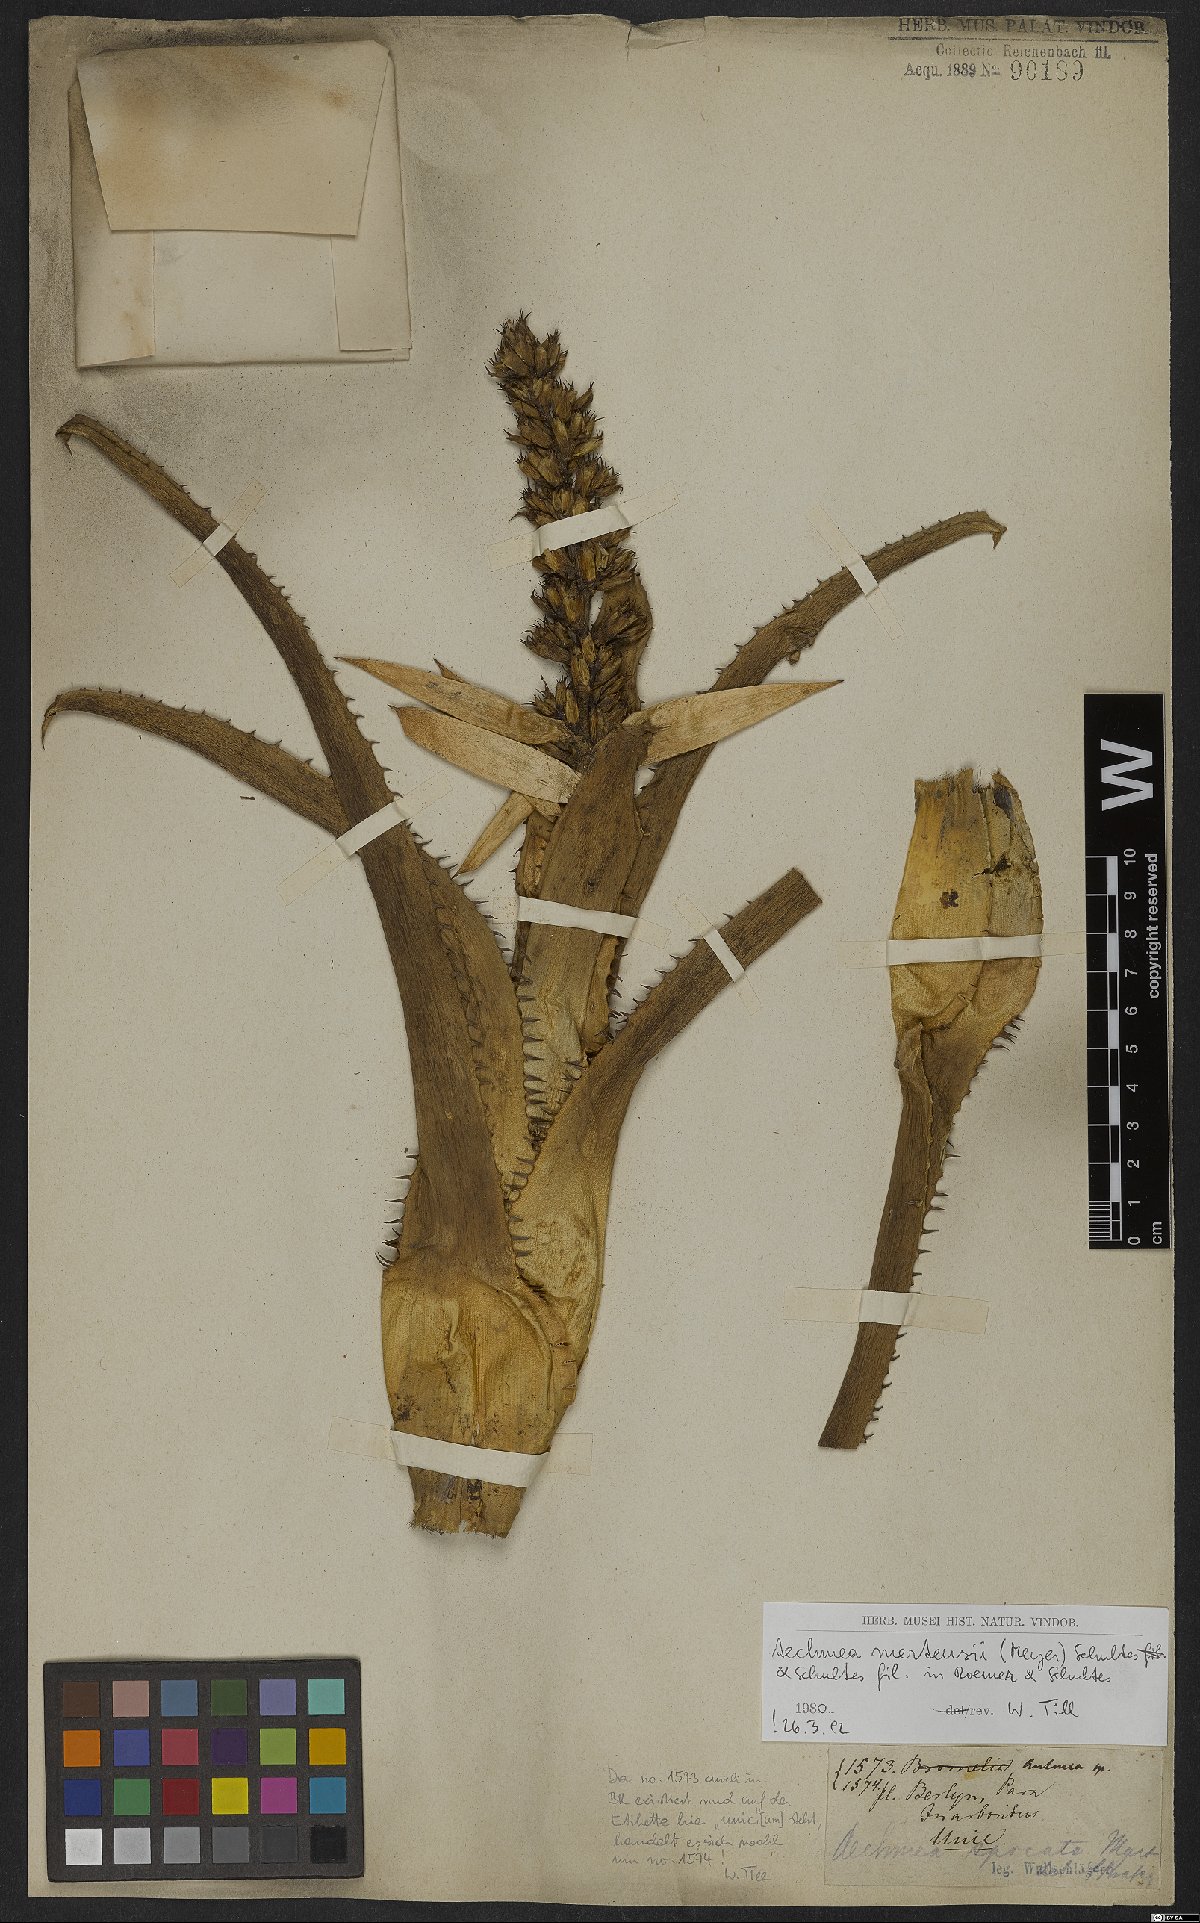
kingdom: Plantae
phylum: Tracheophyta
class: Liliopsida
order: Poales
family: Bromeliaceae
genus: Aechmea
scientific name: Aechmea mertensii
